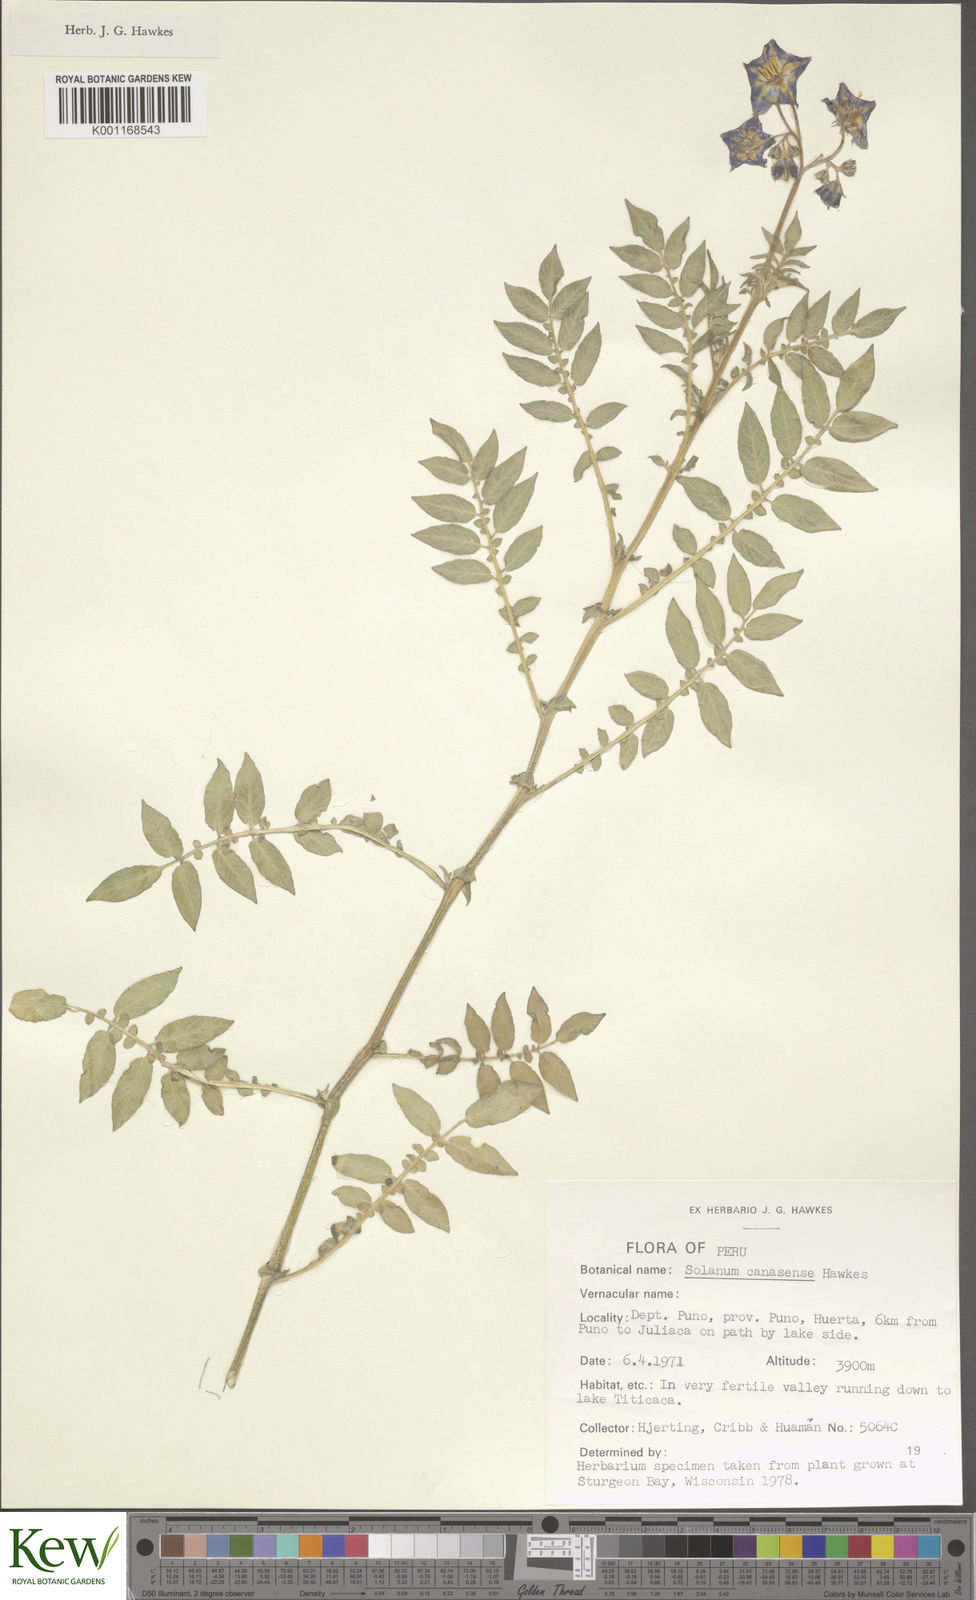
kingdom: Plantae
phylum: Tracheophyta
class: Magnoliopsida
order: Solanales
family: Solanaceae
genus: Solanum
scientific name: Solanum candolleanum
